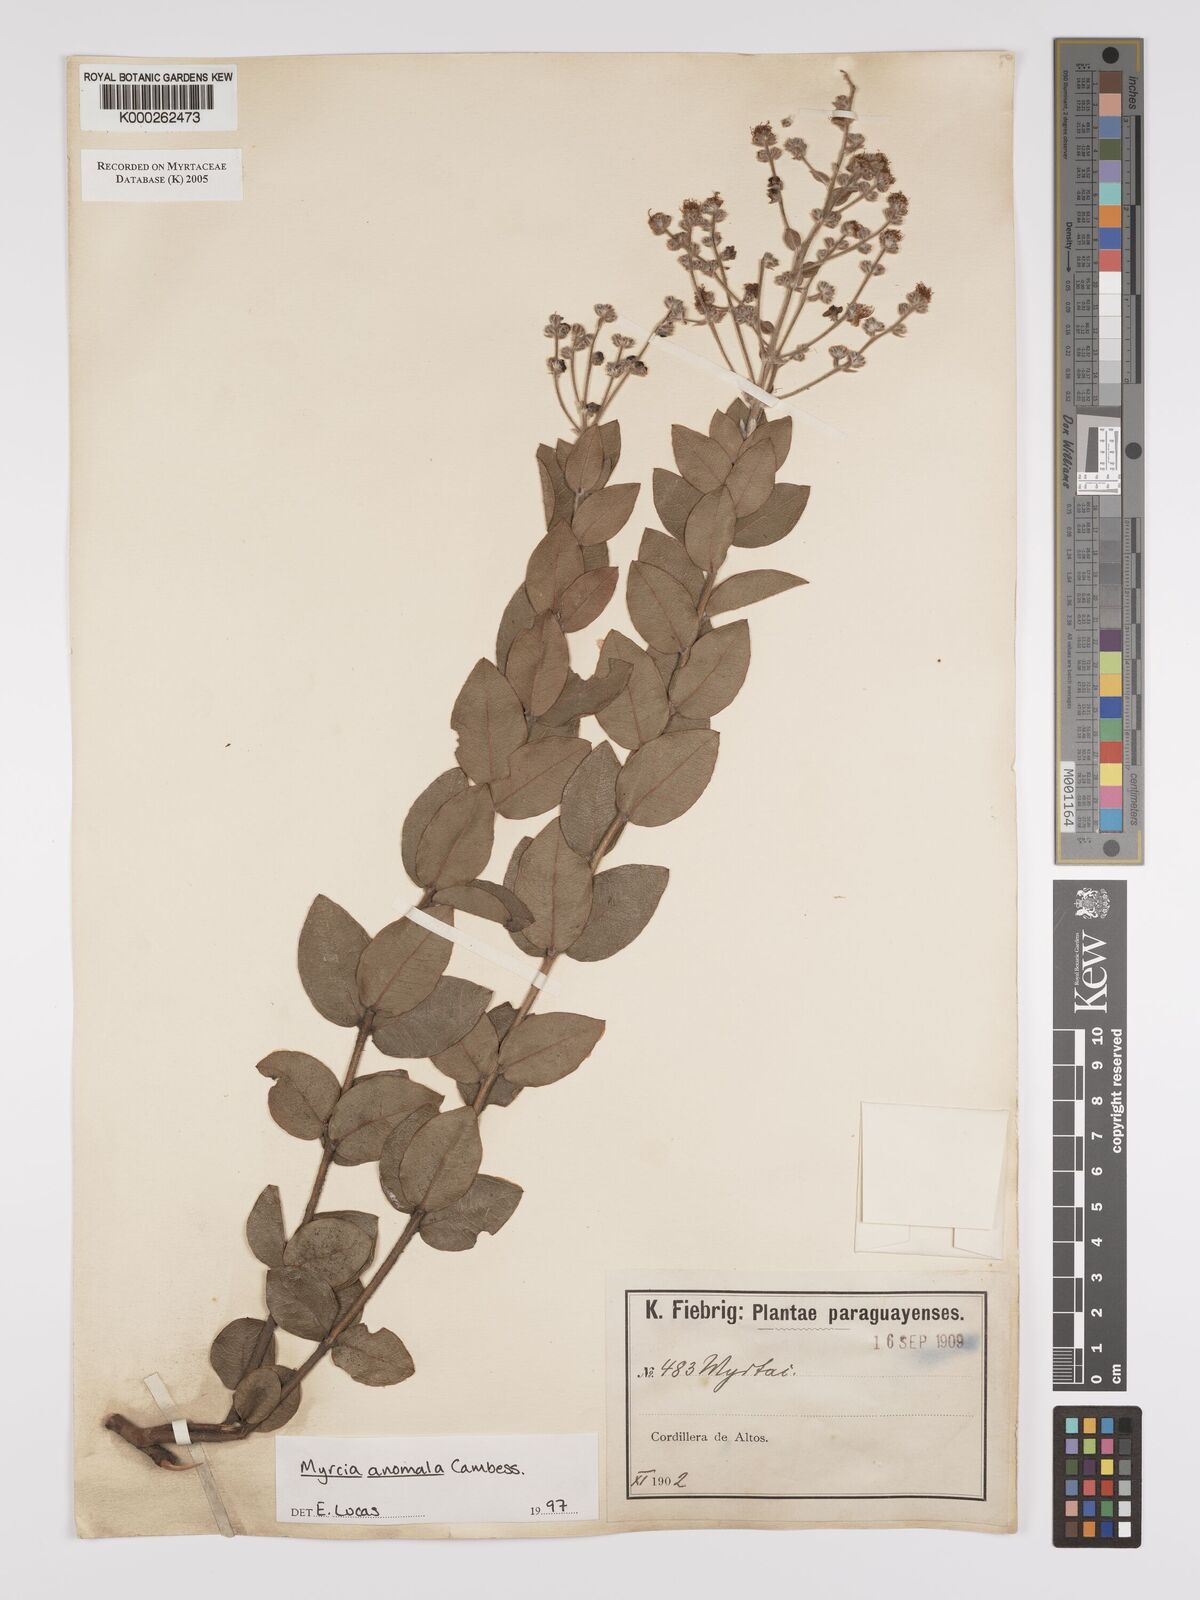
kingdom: Plantae
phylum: Tracheophyta
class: Magnoliopsida
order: Myrtales
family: Myrtaceae
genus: Myrcia
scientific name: Myrcia anomala
